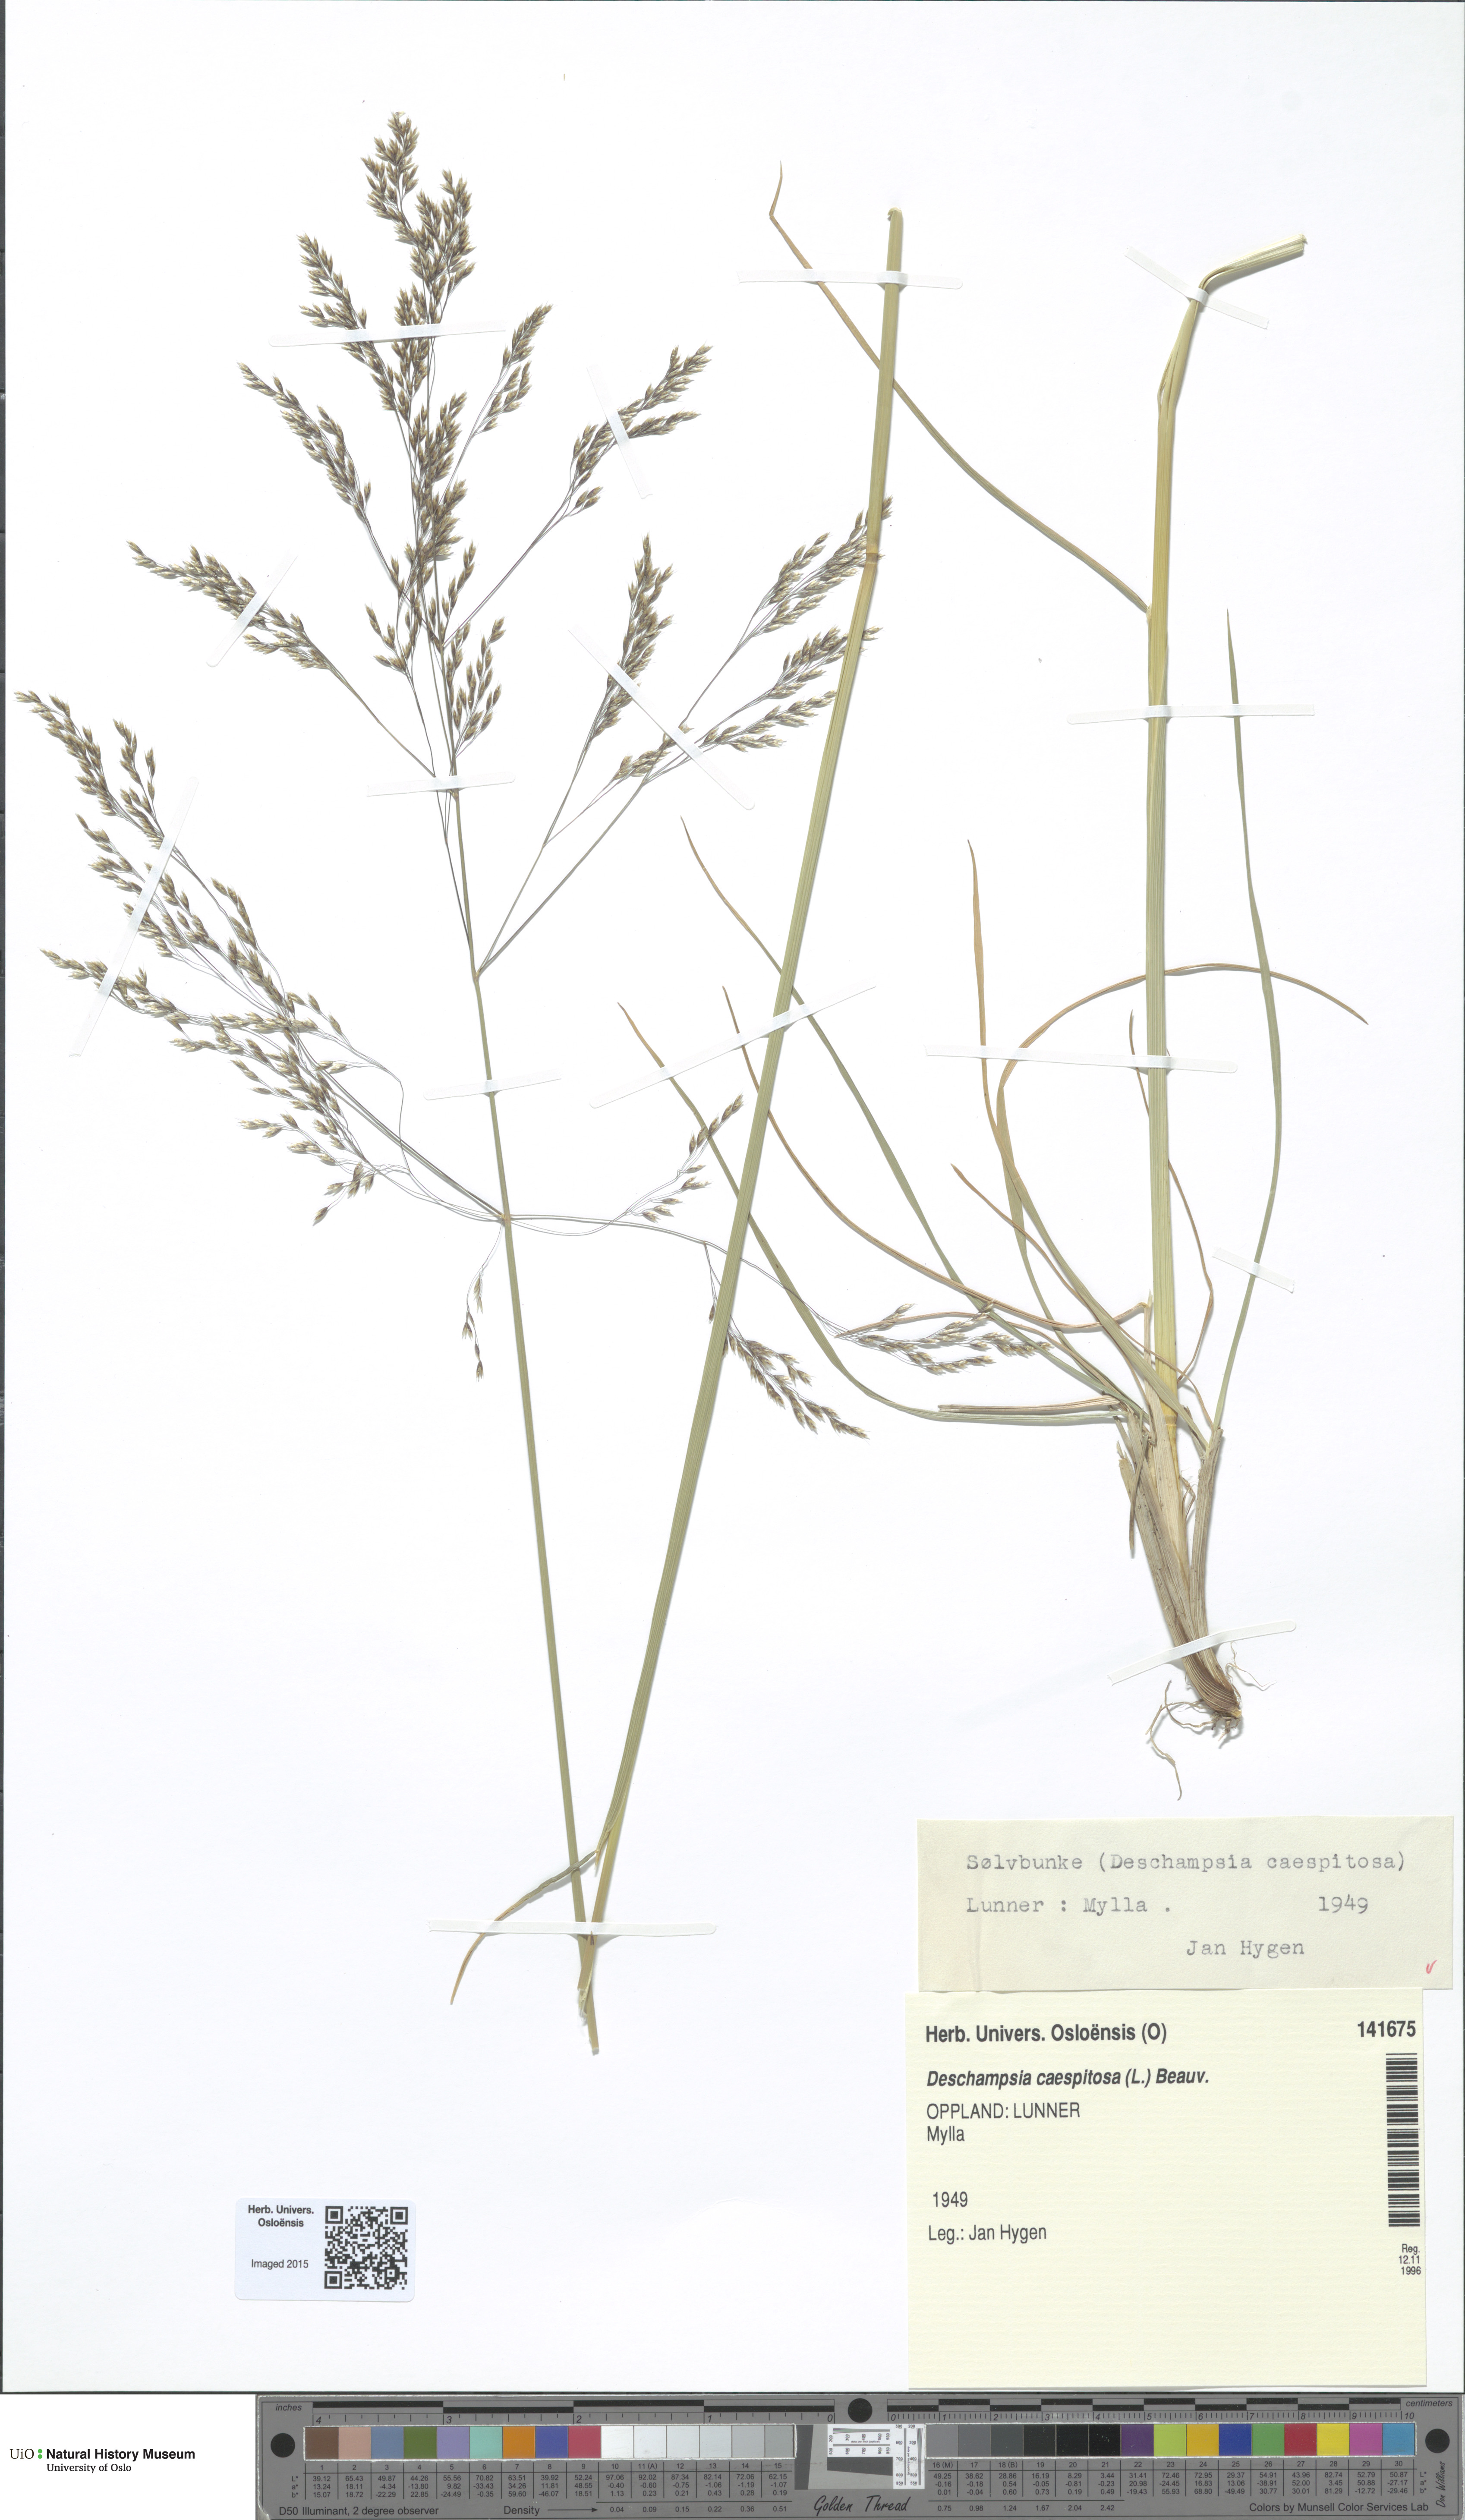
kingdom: Plantae
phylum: Tracheophyta
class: Liliopsida
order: Poales
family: Poaceae
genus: Deschampsia
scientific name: Deschampsia cespitosa
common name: Tufted hair-grass
